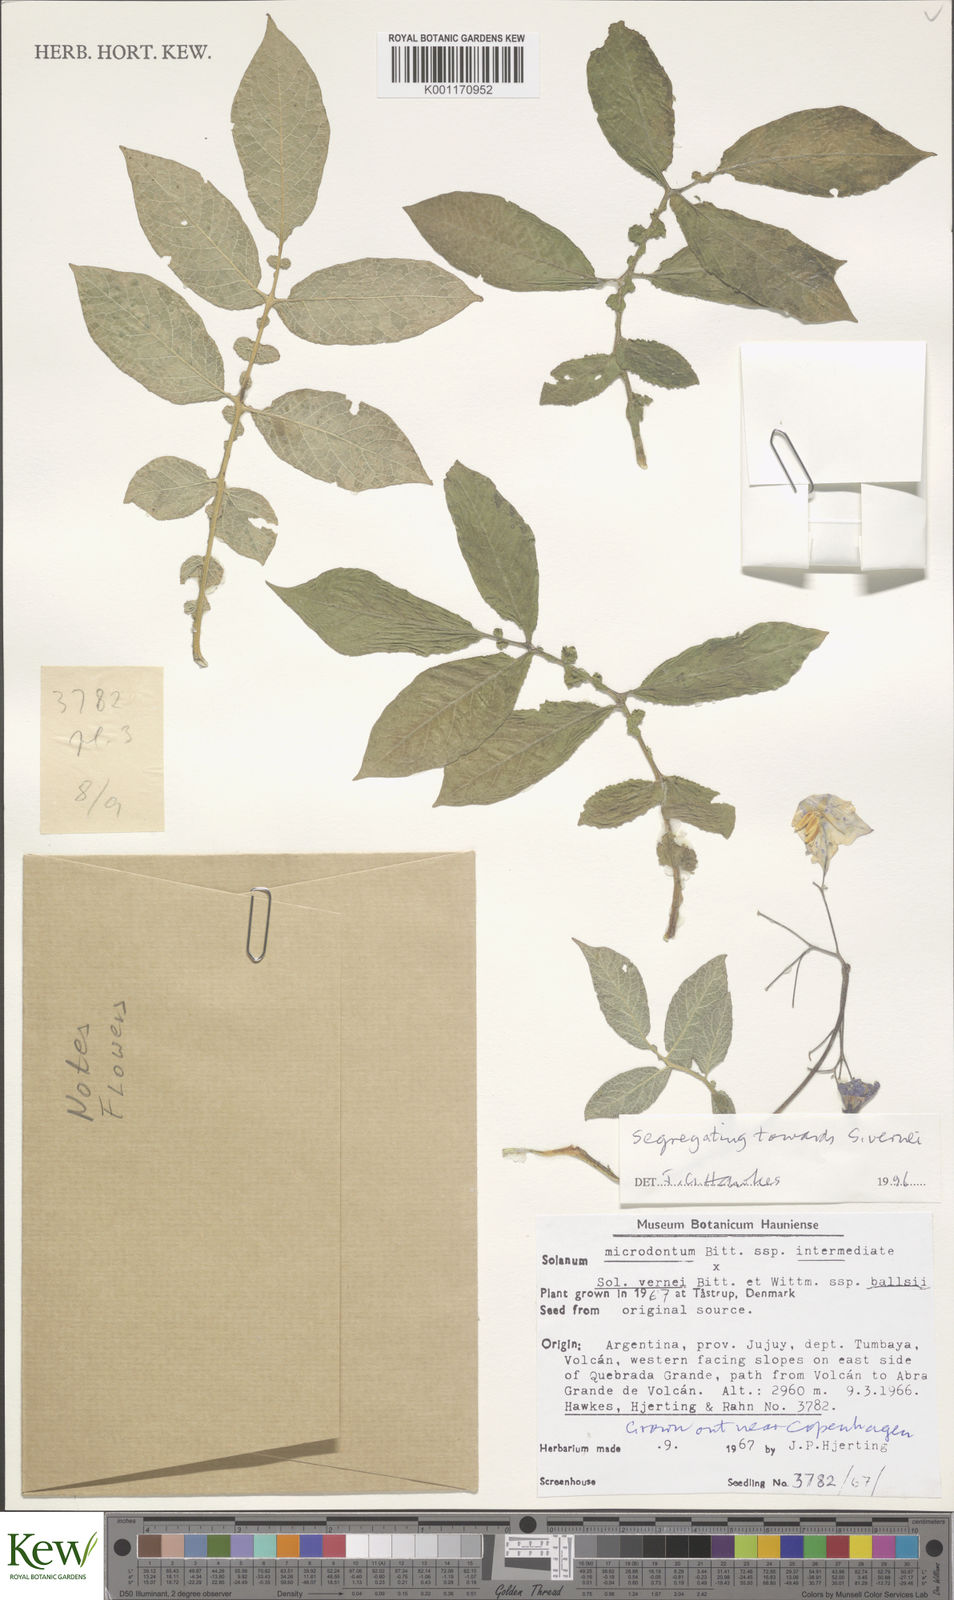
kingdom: Plantae
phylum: Tracheophyta
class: Magnoliopsida
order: Solanales
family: Solanaceae
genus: Solanum
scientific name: Solanum vernei
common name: Purple potato
